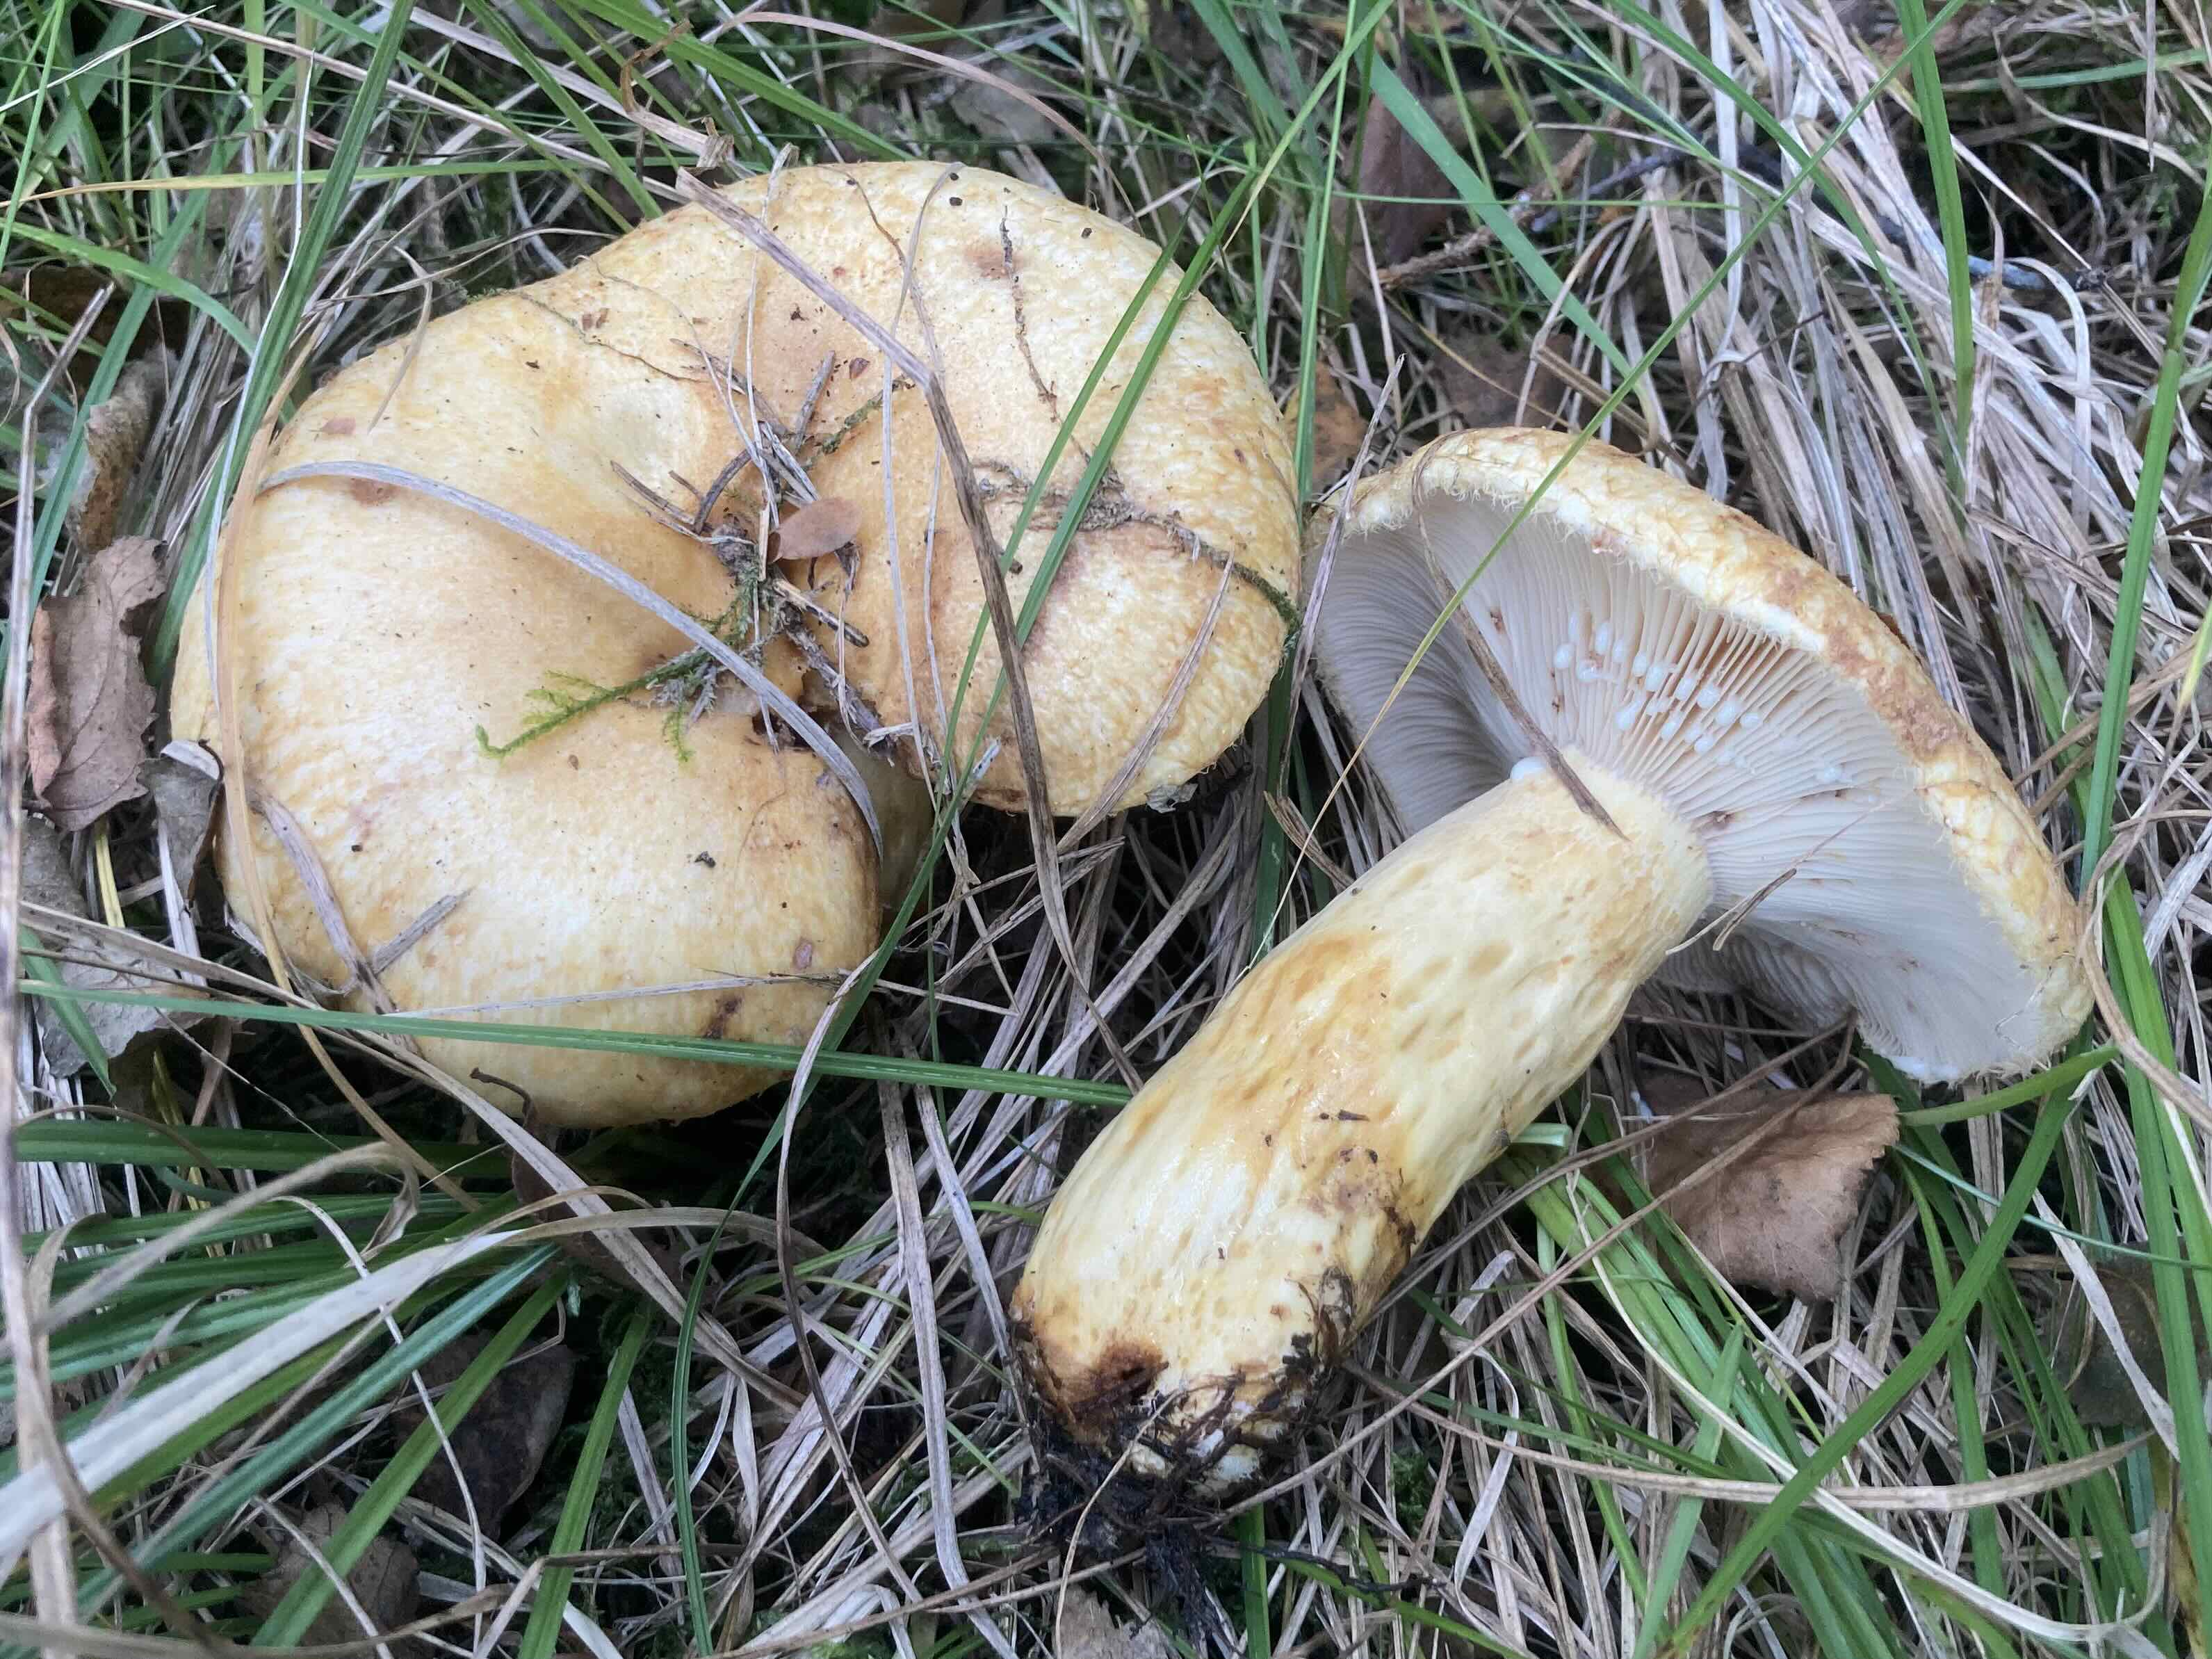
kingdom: Fungi
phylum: Basidiomycota
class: Agaricomycetes
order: Russulales
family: Russulaceae
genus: Lactarius
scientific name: Lactarius repraesentaneus
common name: prægtig mælkehat
